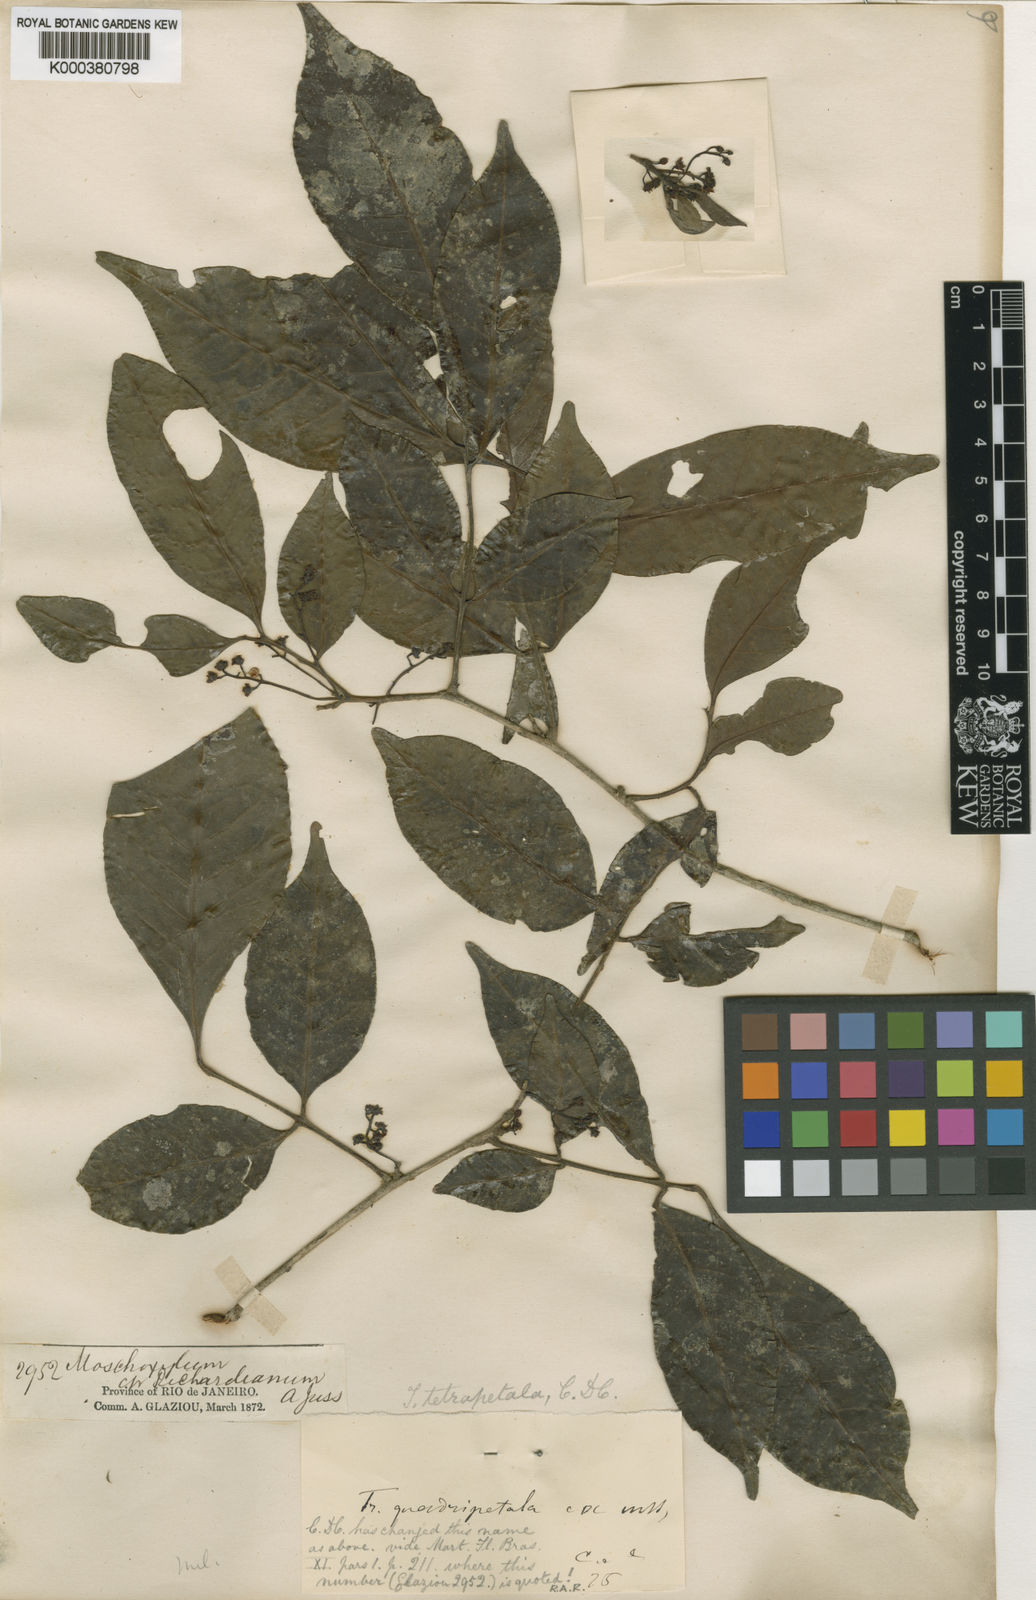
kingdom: Plantae
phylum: Tracheophyta
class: Magnoliopsida
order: Sapindales
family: Meliaceae
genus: Trichilia
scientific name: Trichilia tetrapetala
